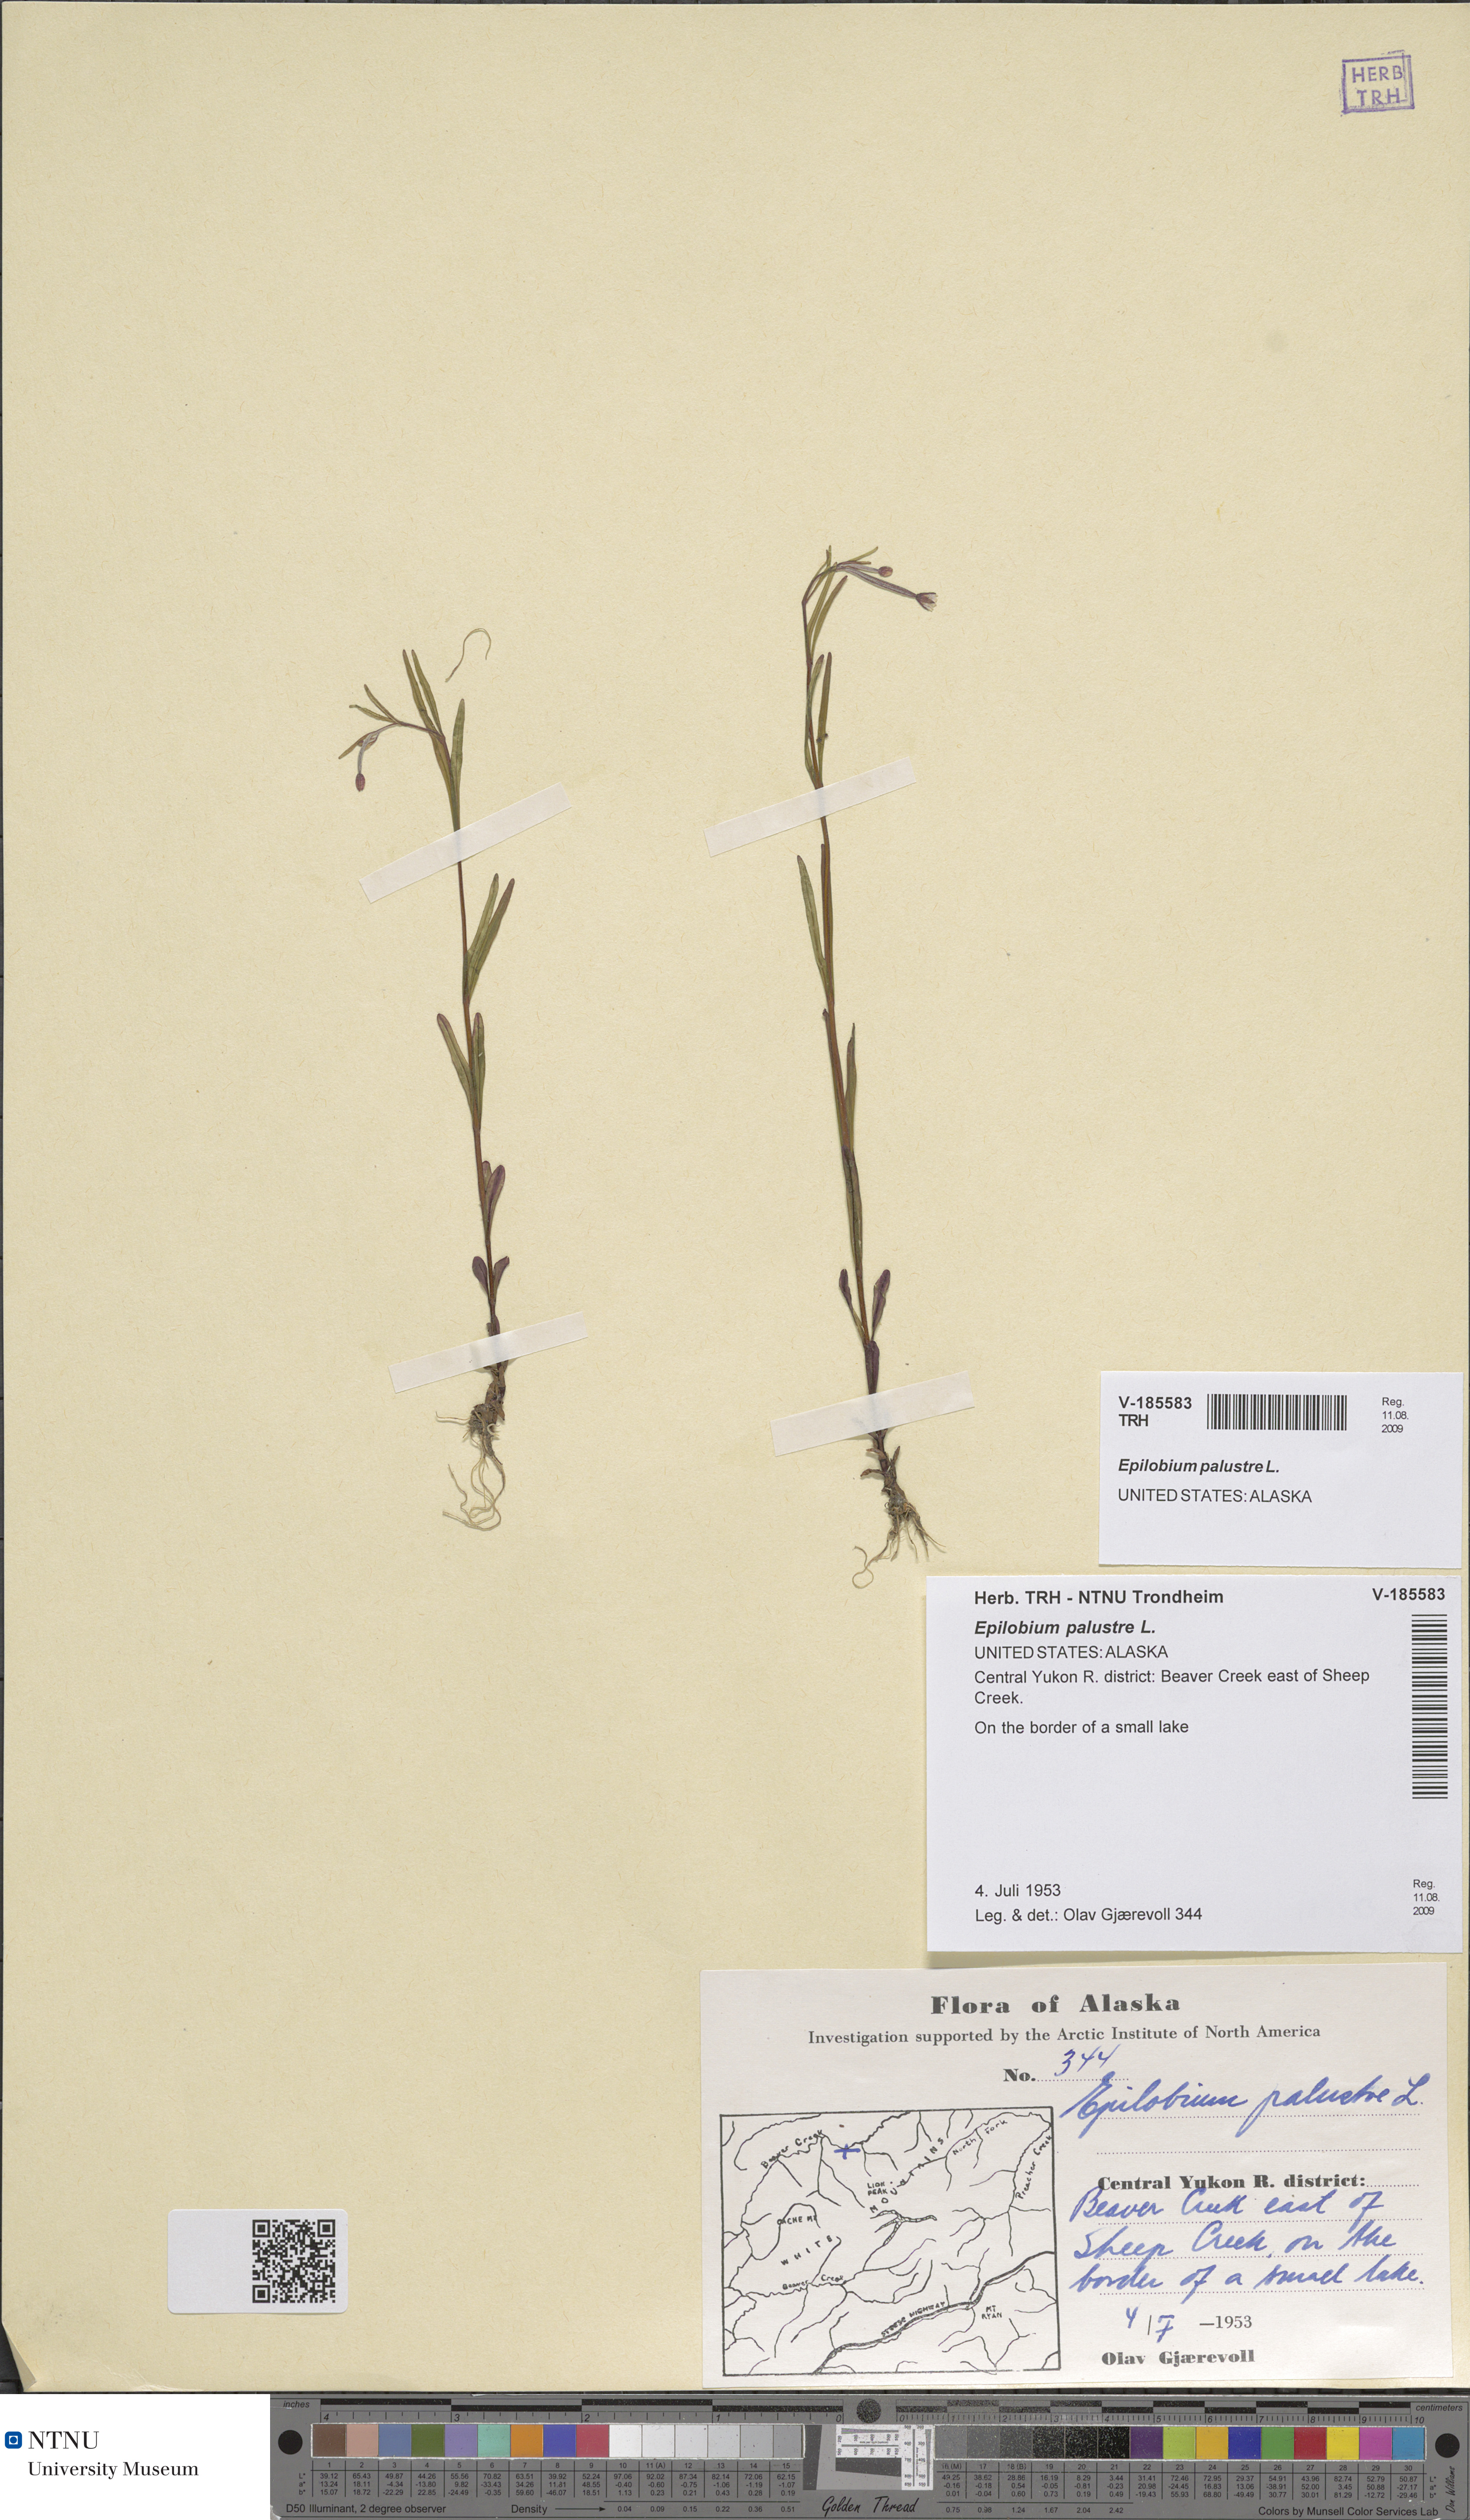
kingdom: Plantae
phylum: Tracheophyta
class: Magnoliopsida
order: Myrtales
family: Onagraceae
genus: Epilobium
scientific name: Epilobium palustre
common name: Marsh willowherb
